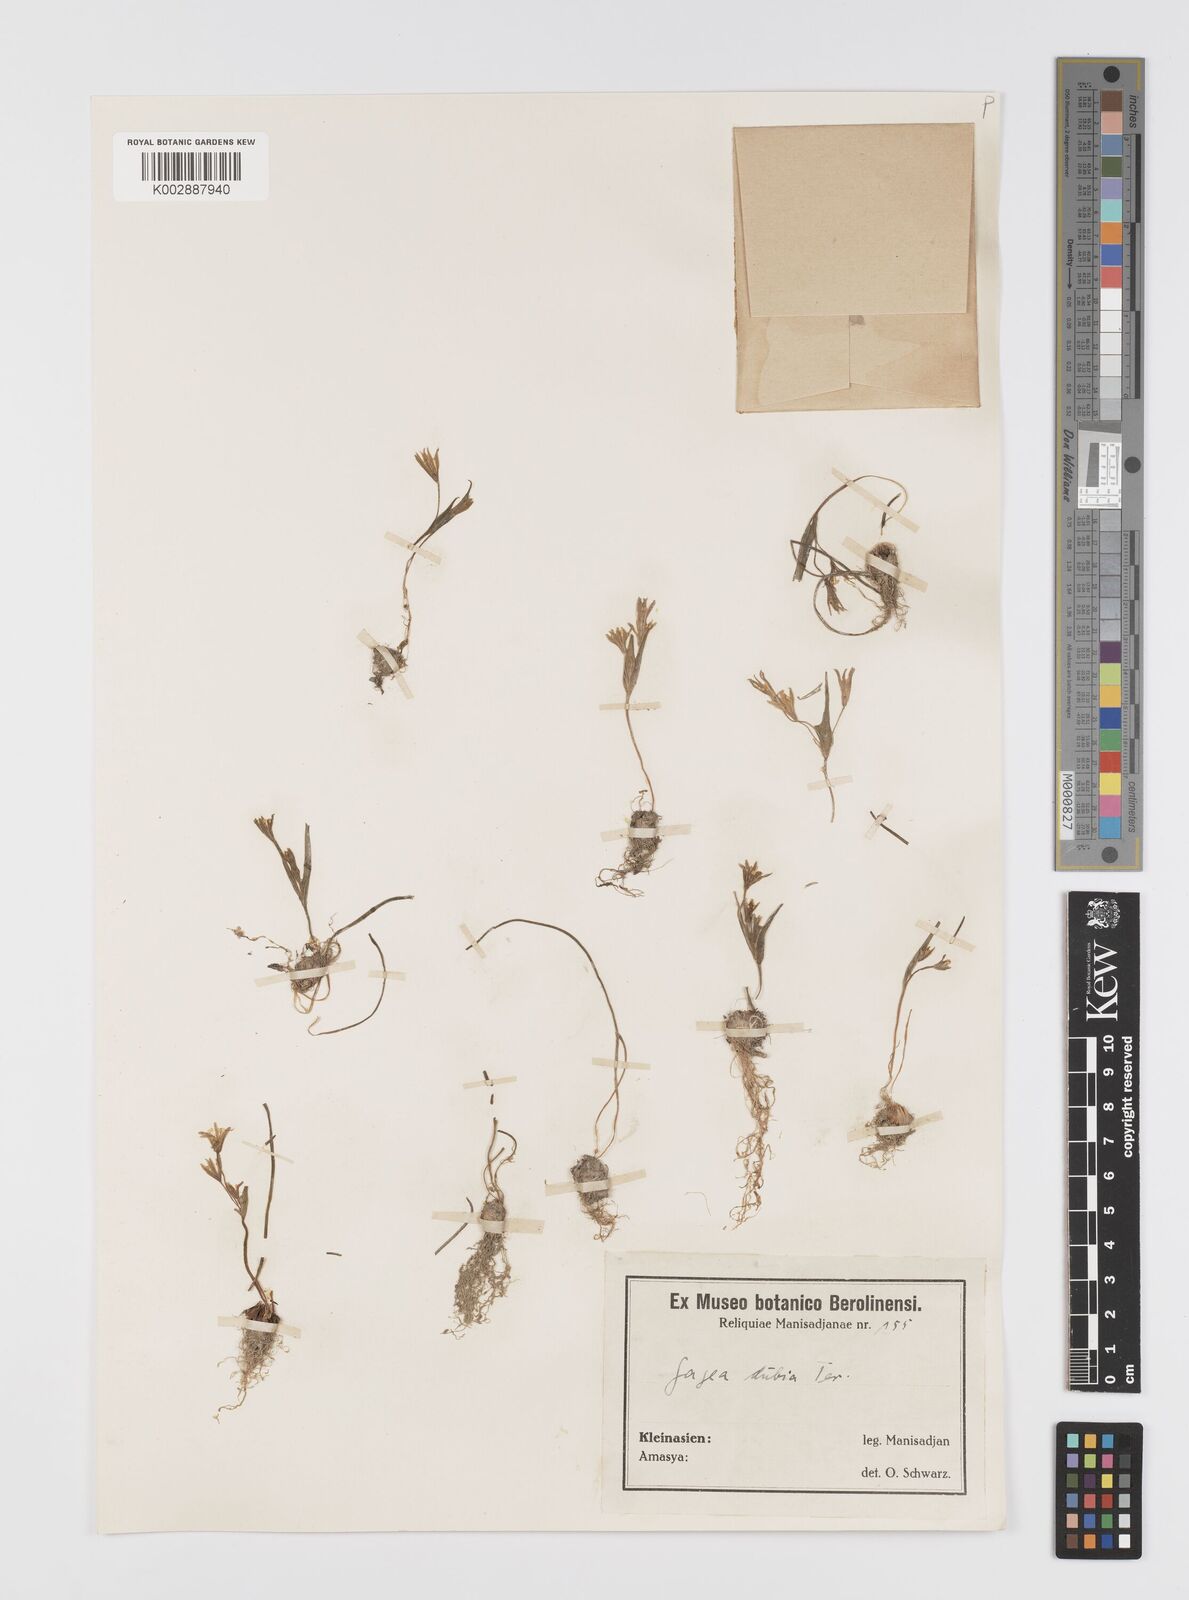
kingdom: Plantae
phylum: Tracheophyta
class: Liliopsida
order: Liliales
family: Liliaceae
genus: Gagea
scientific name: Gagea dubia
